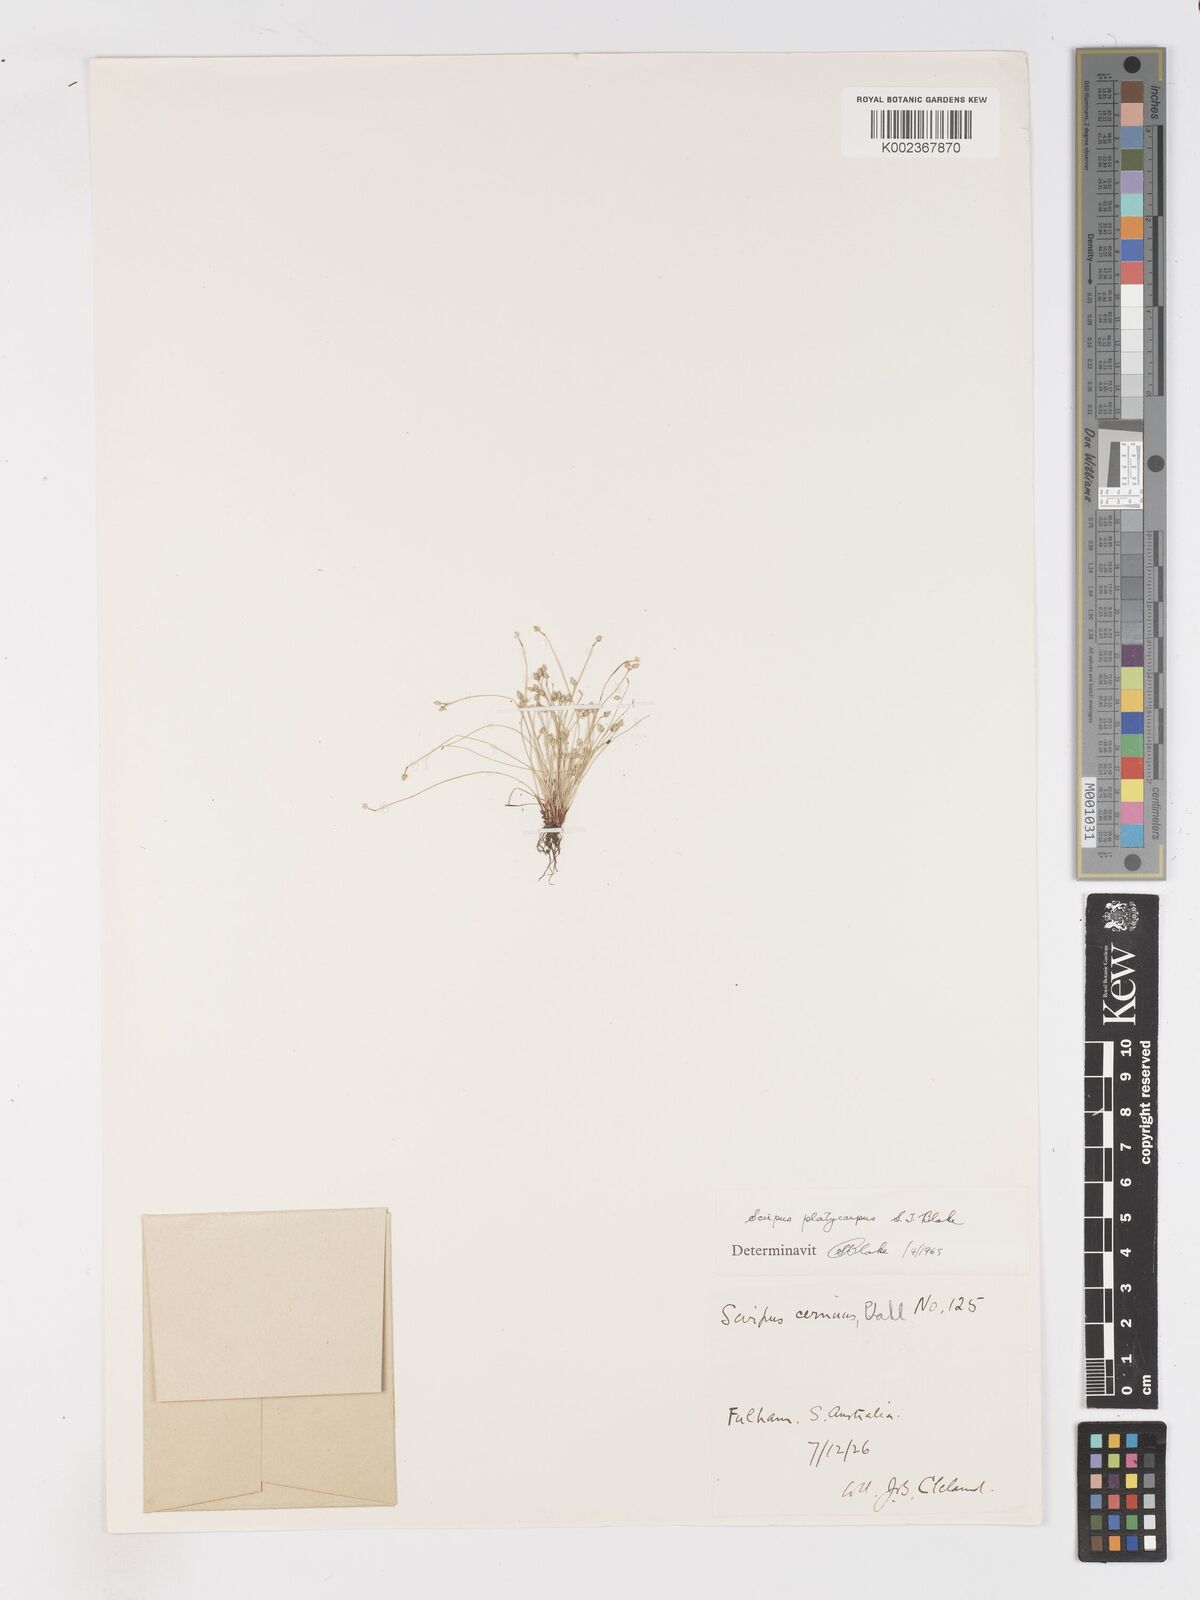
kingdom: Plantae
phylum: Tracheophyta
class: Liliopsida
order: Poales
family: Cyperaceae
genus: Isolepis
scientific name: Isolepis cernua
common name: Slender club-rush
